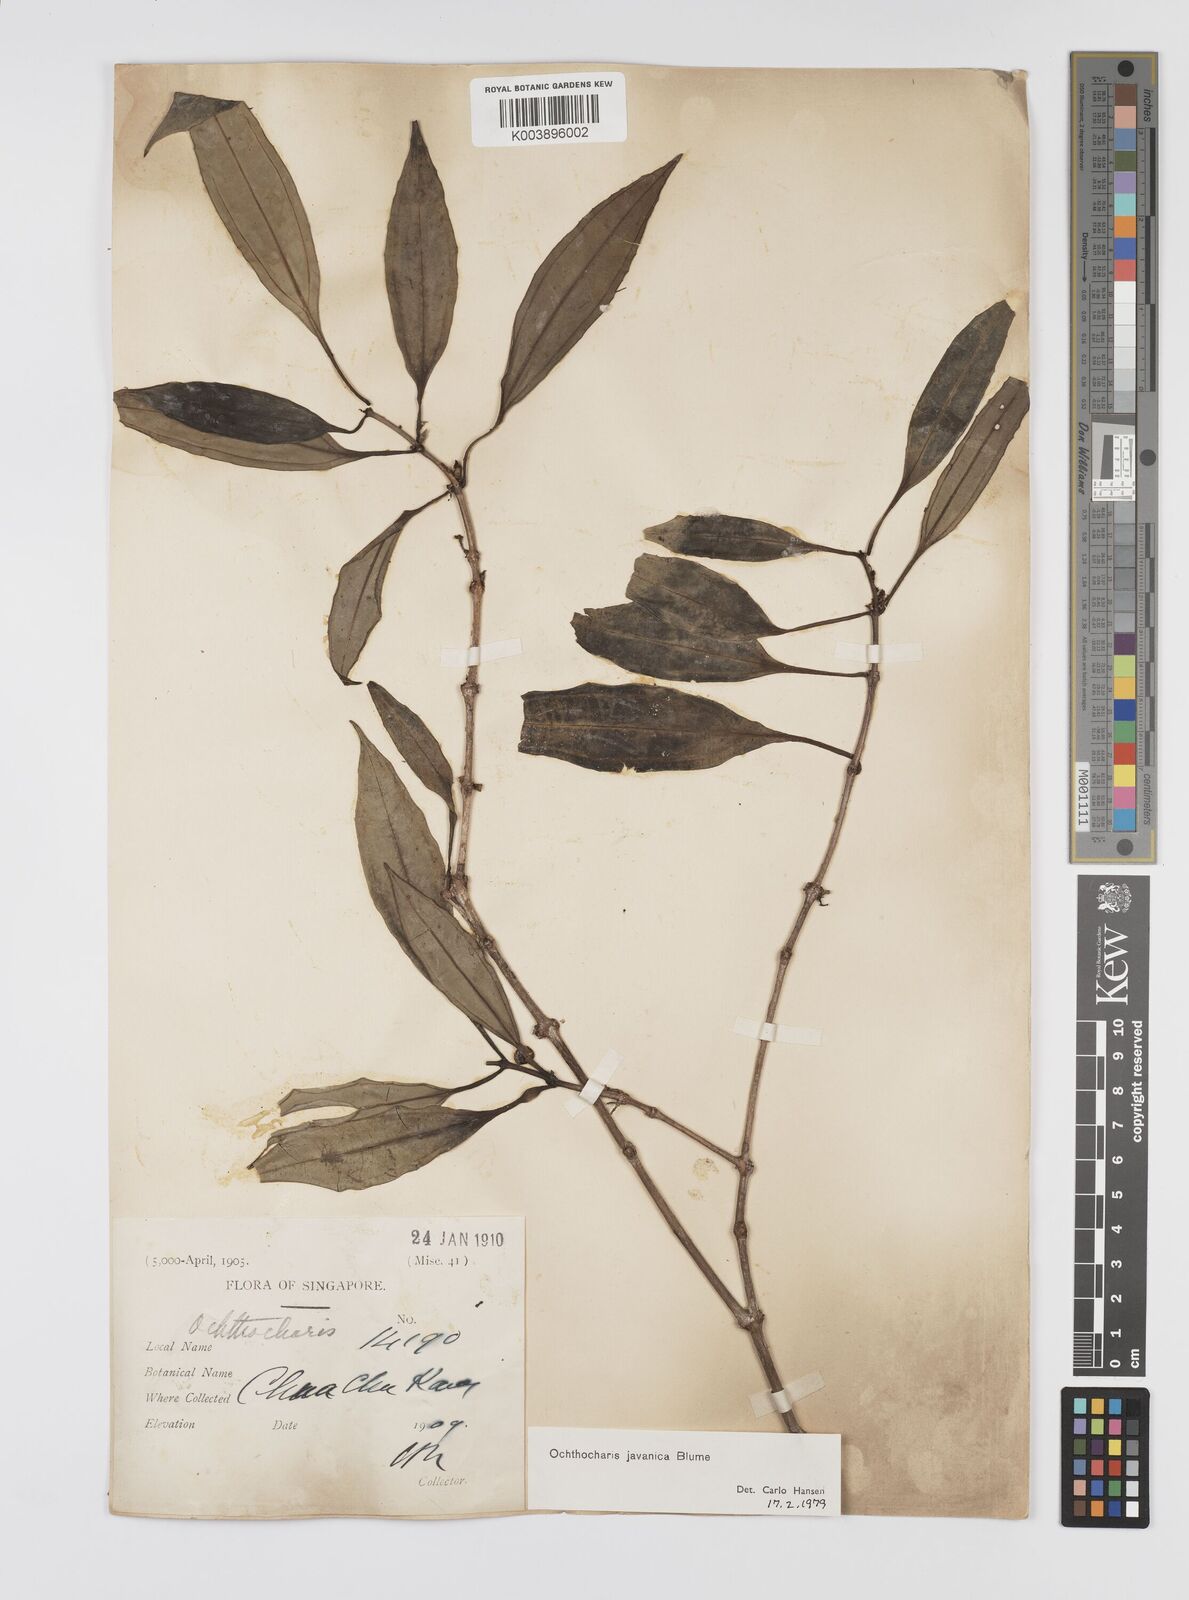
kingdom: Plantae
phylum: Tracheophyta
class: Magnoliopsida
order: Myrtales
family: Melastomataceae
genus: Ochthocharis
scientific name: Ochthocharis javanica
